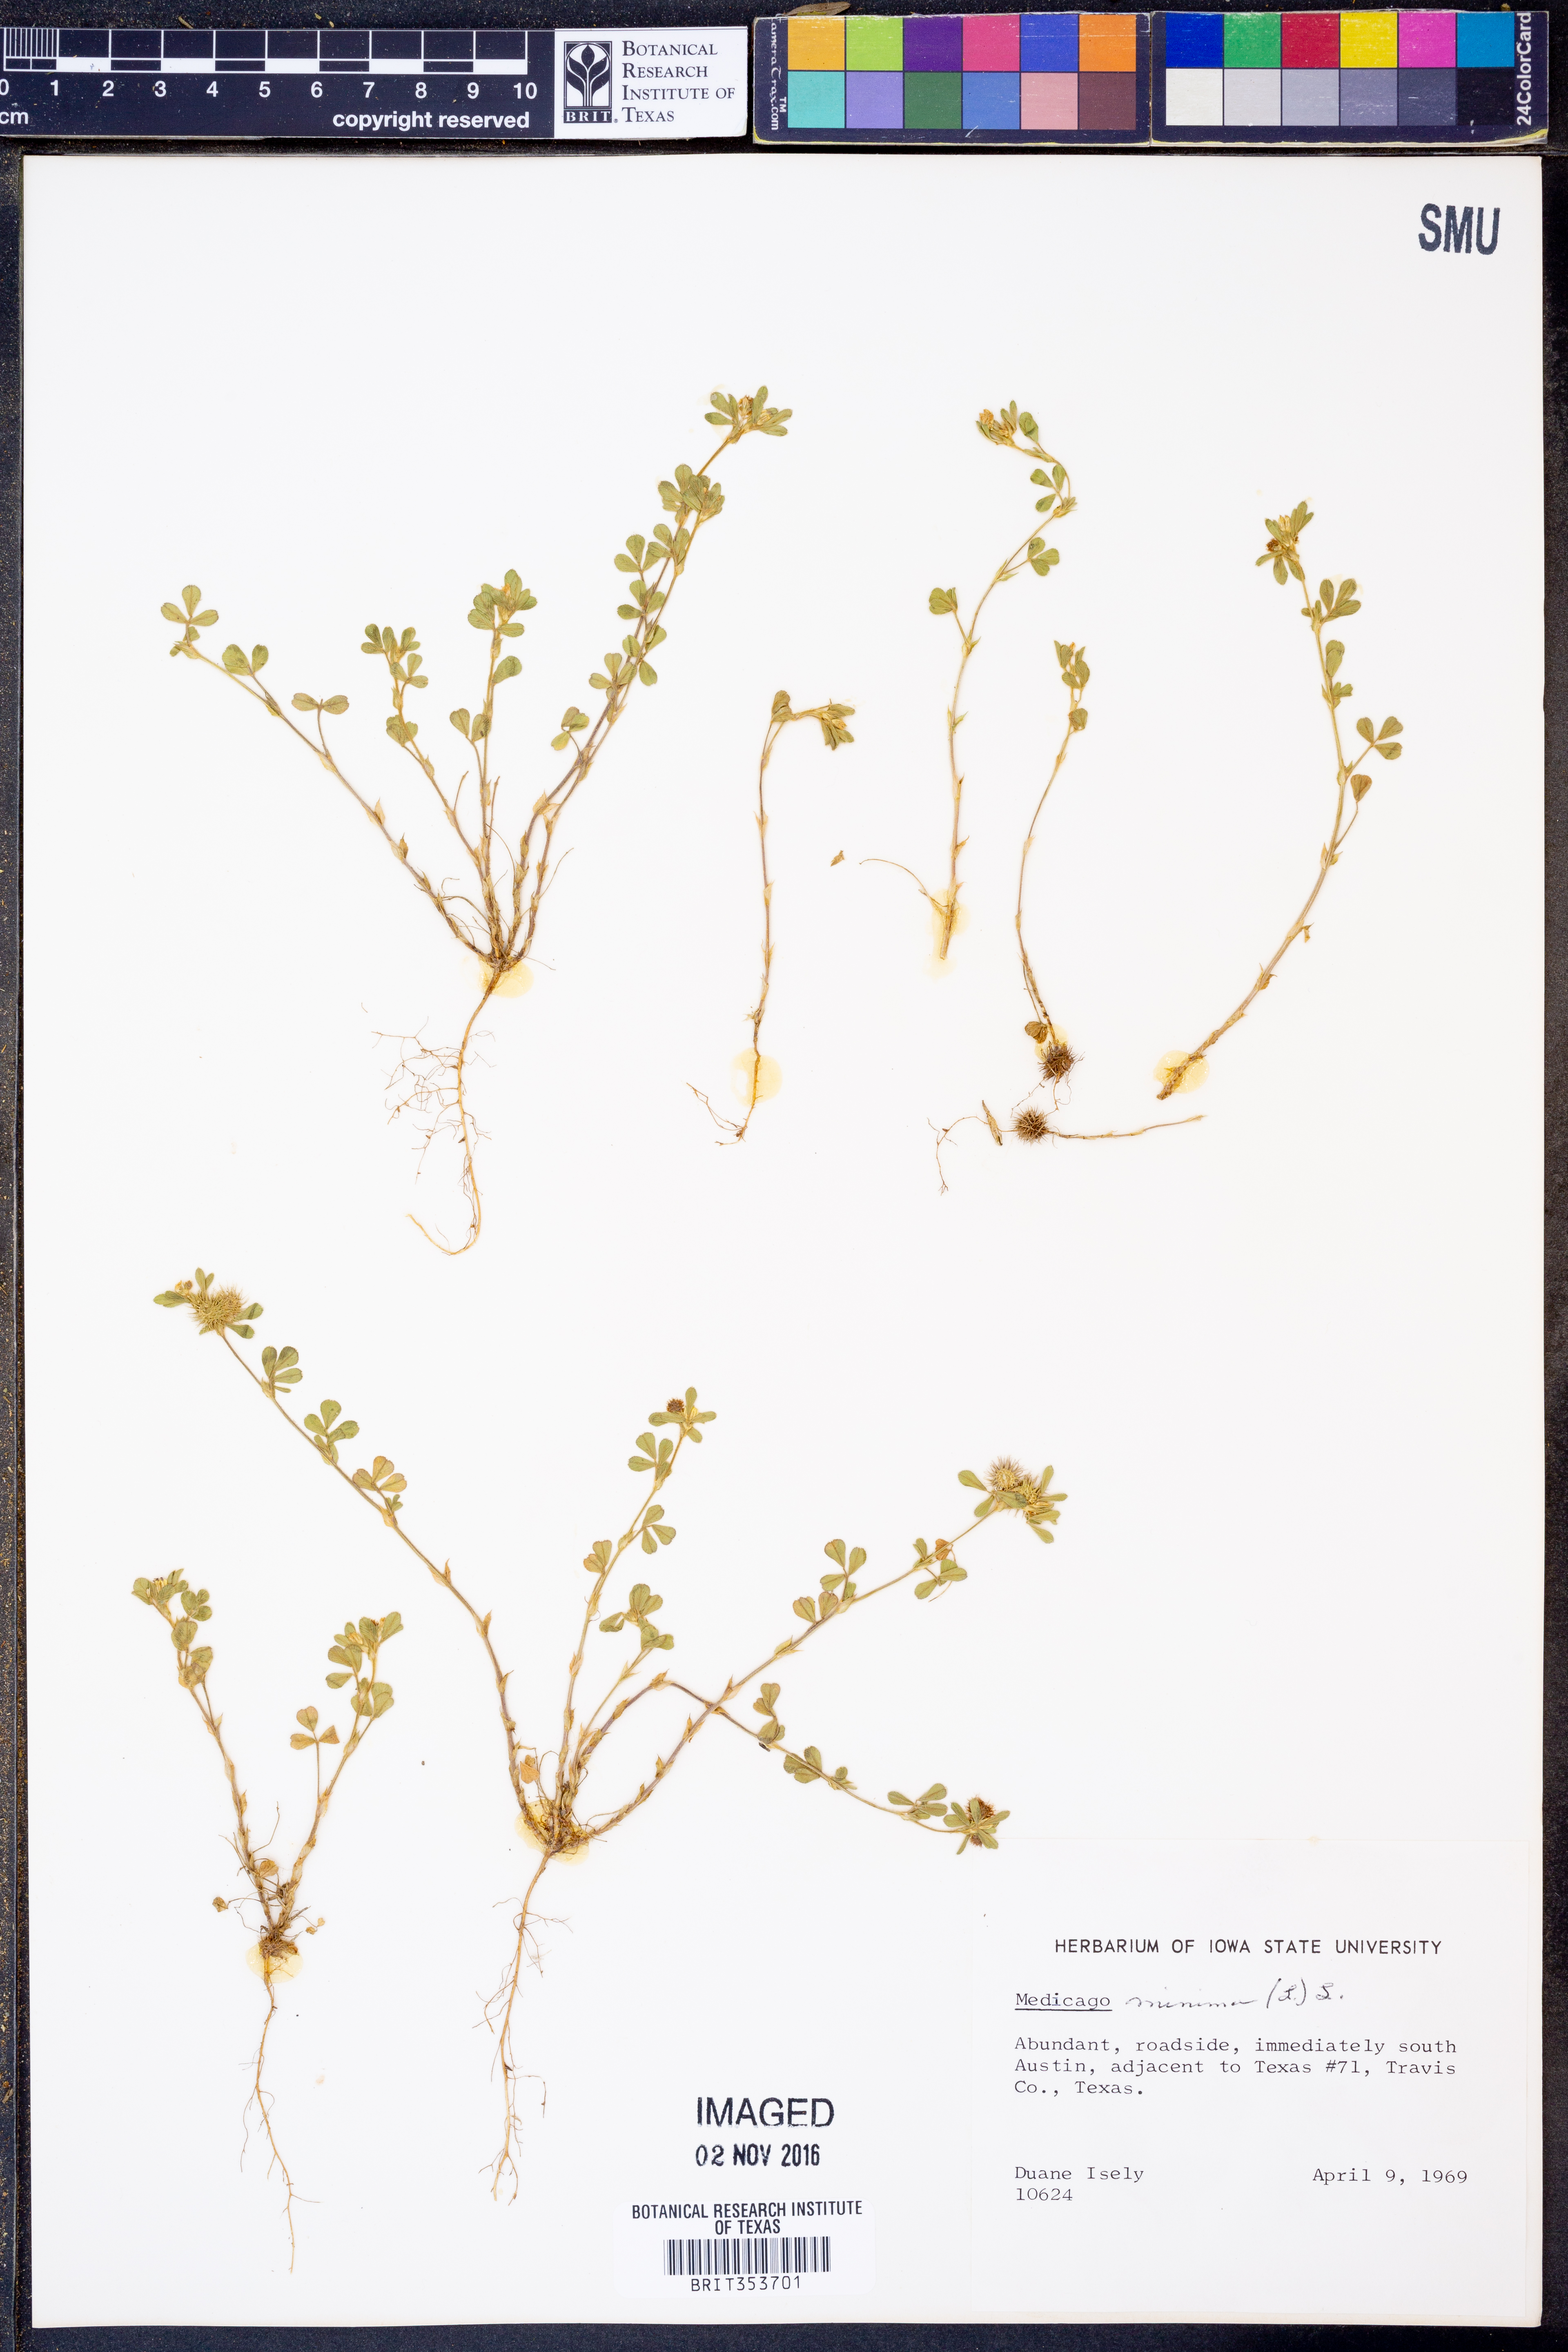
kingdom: Plantae
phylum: Tracheophyta
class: Magnoliopsida
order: Fabales
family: Fabaceae
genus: Medicago
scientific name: Medicago minima
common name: Little bur-clover
